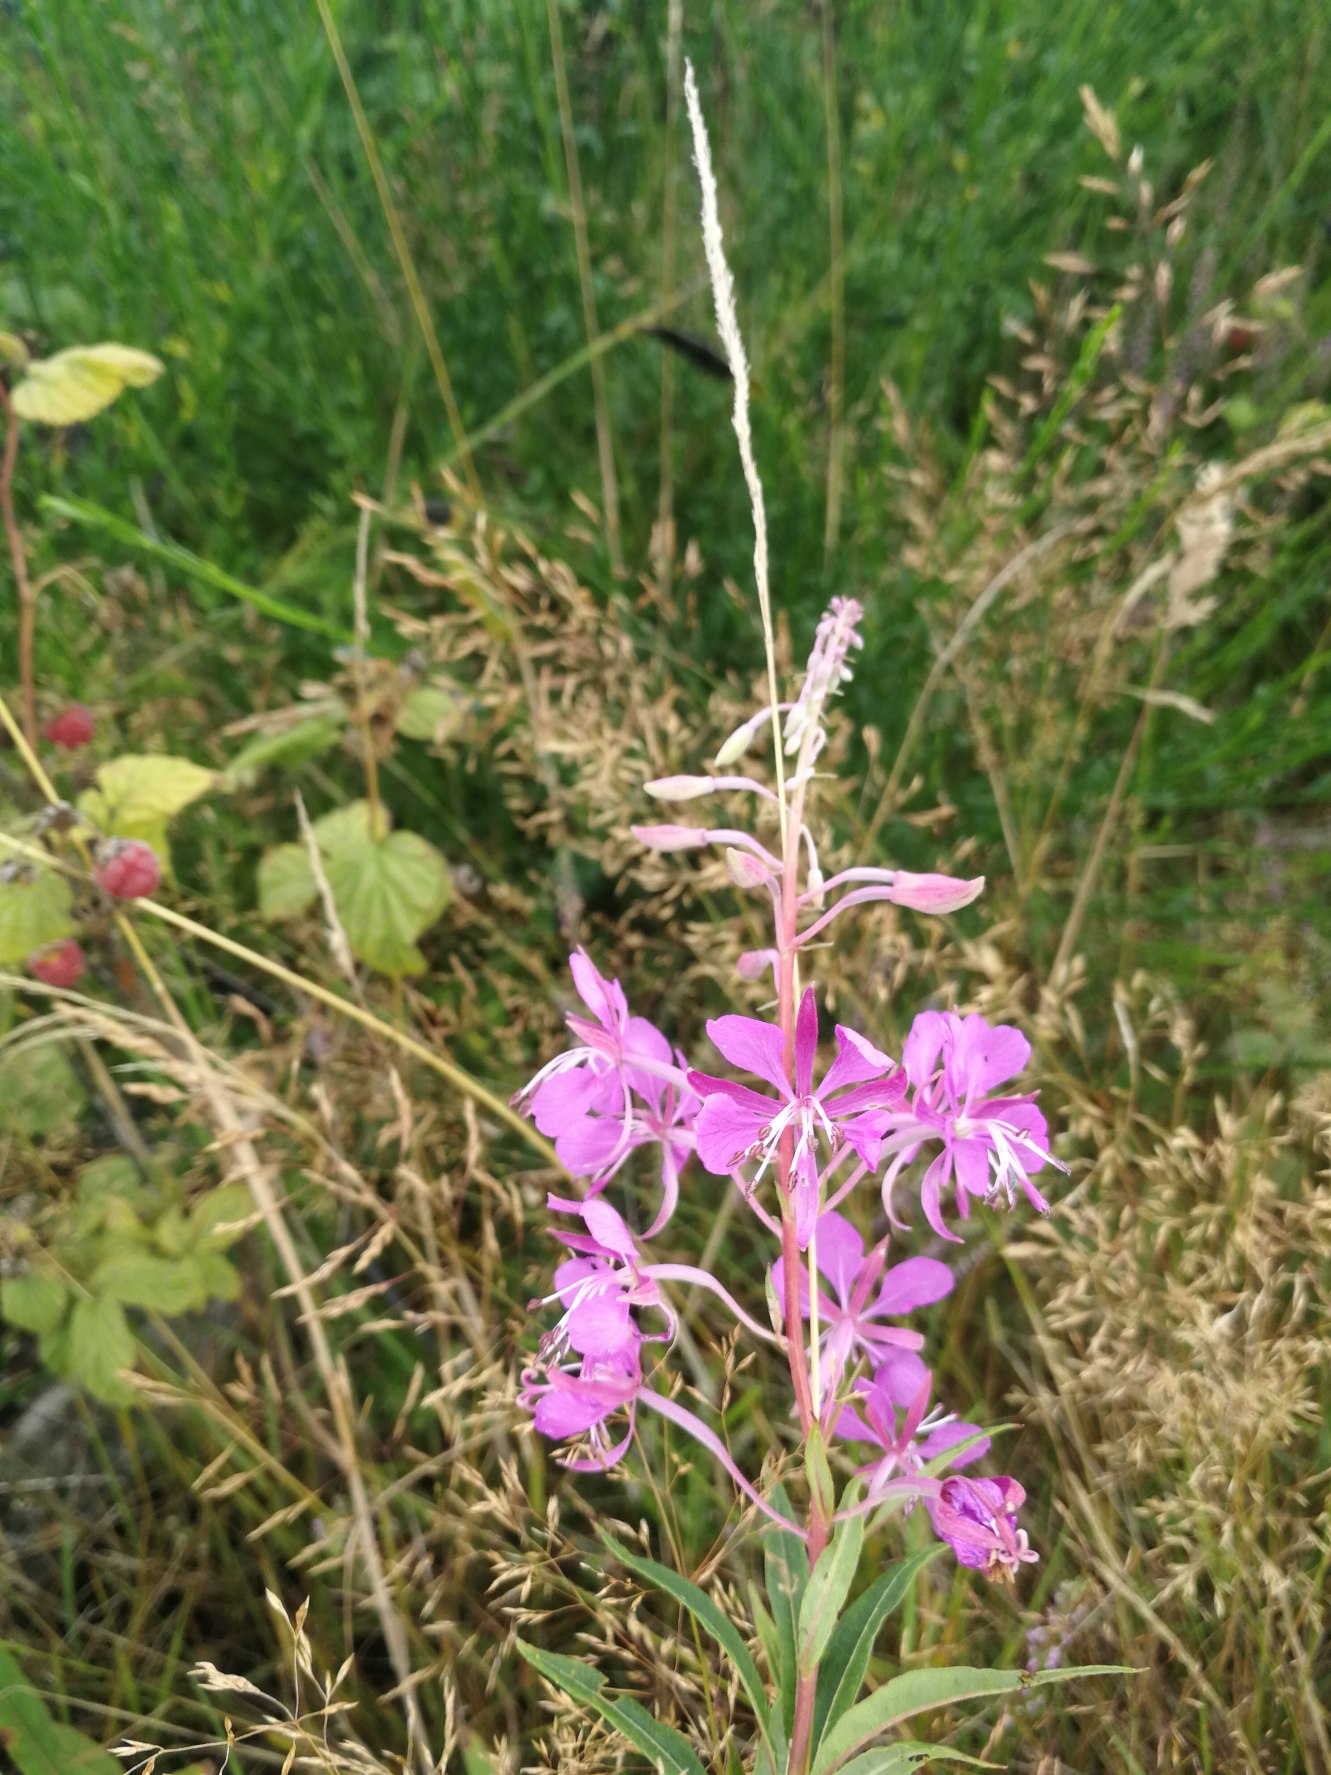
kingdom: Plantae
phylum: Tracheophyta
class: Magnoliopsida
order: Myrtales
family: Onagraceae
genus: Chamaenerion
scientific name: Chamaenerion angustifolium
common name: Gederams
